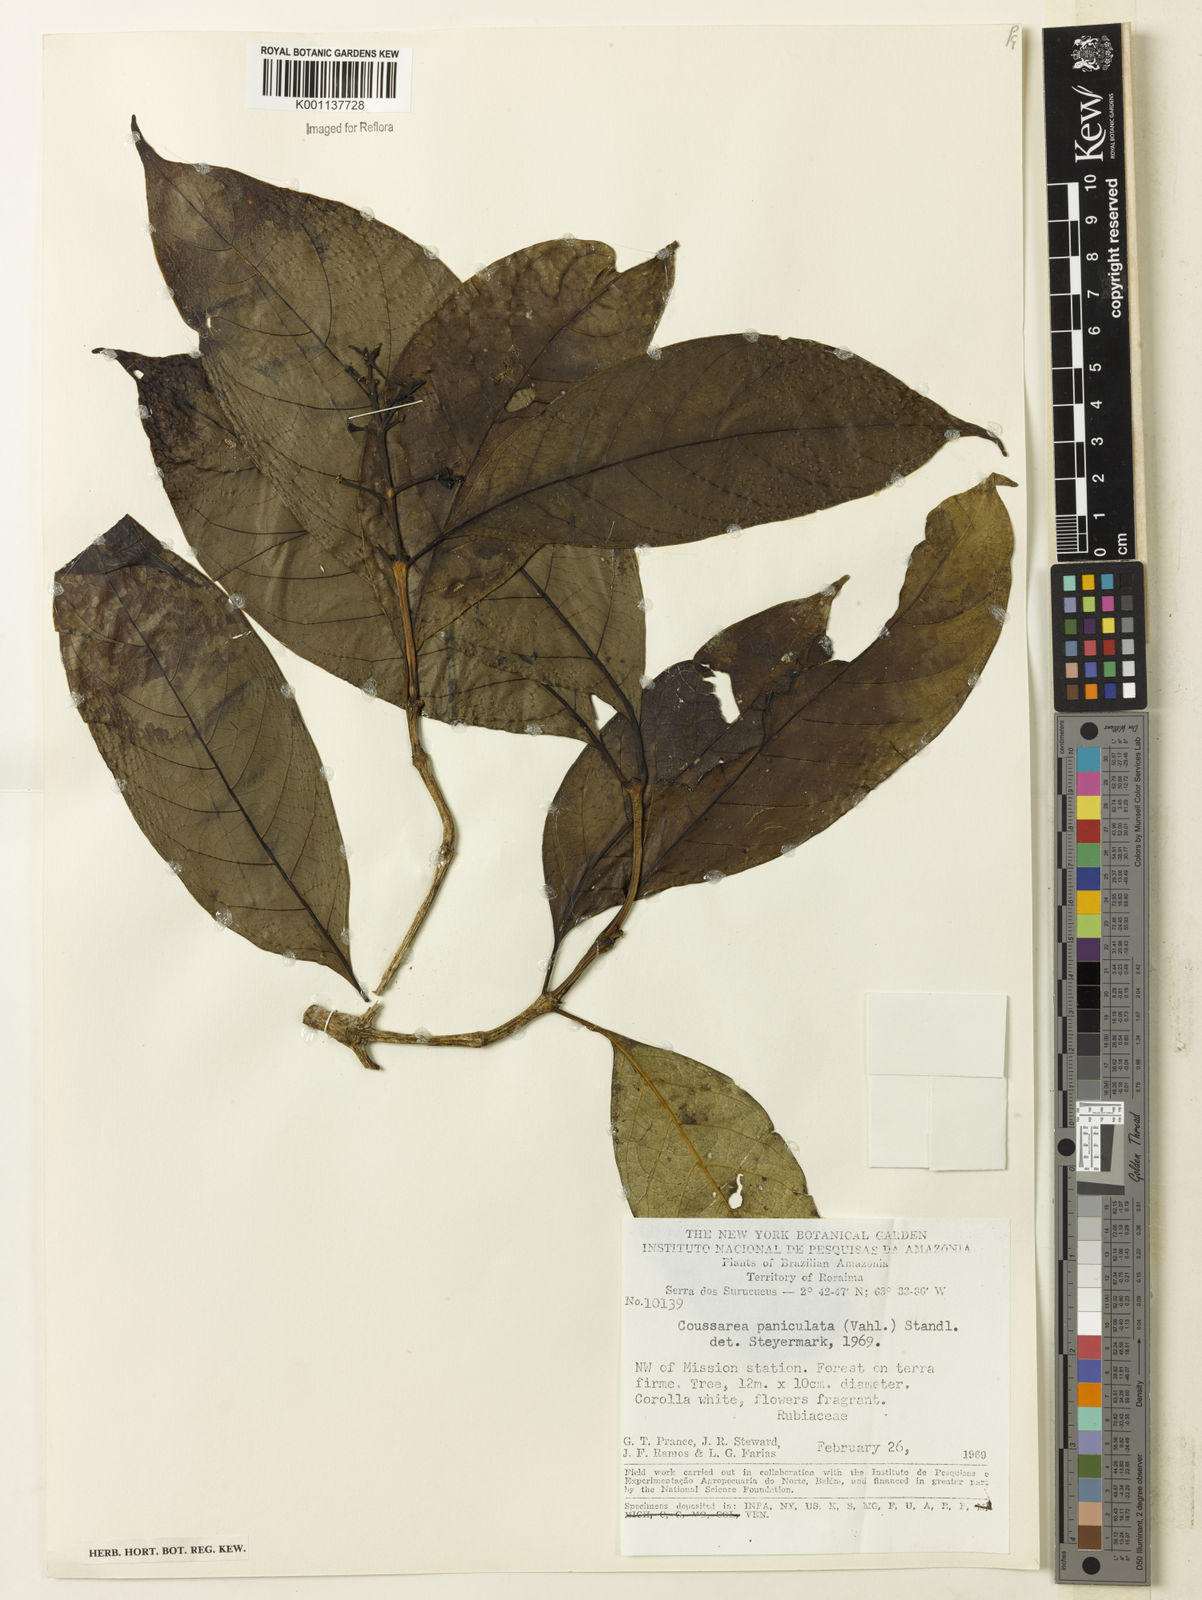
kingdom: Plantae
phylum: Tracheophyta
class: Magnoliopsida
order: Gentianales
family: Rubiaceae
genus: Coussarea
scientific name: Coussarea paniculata
